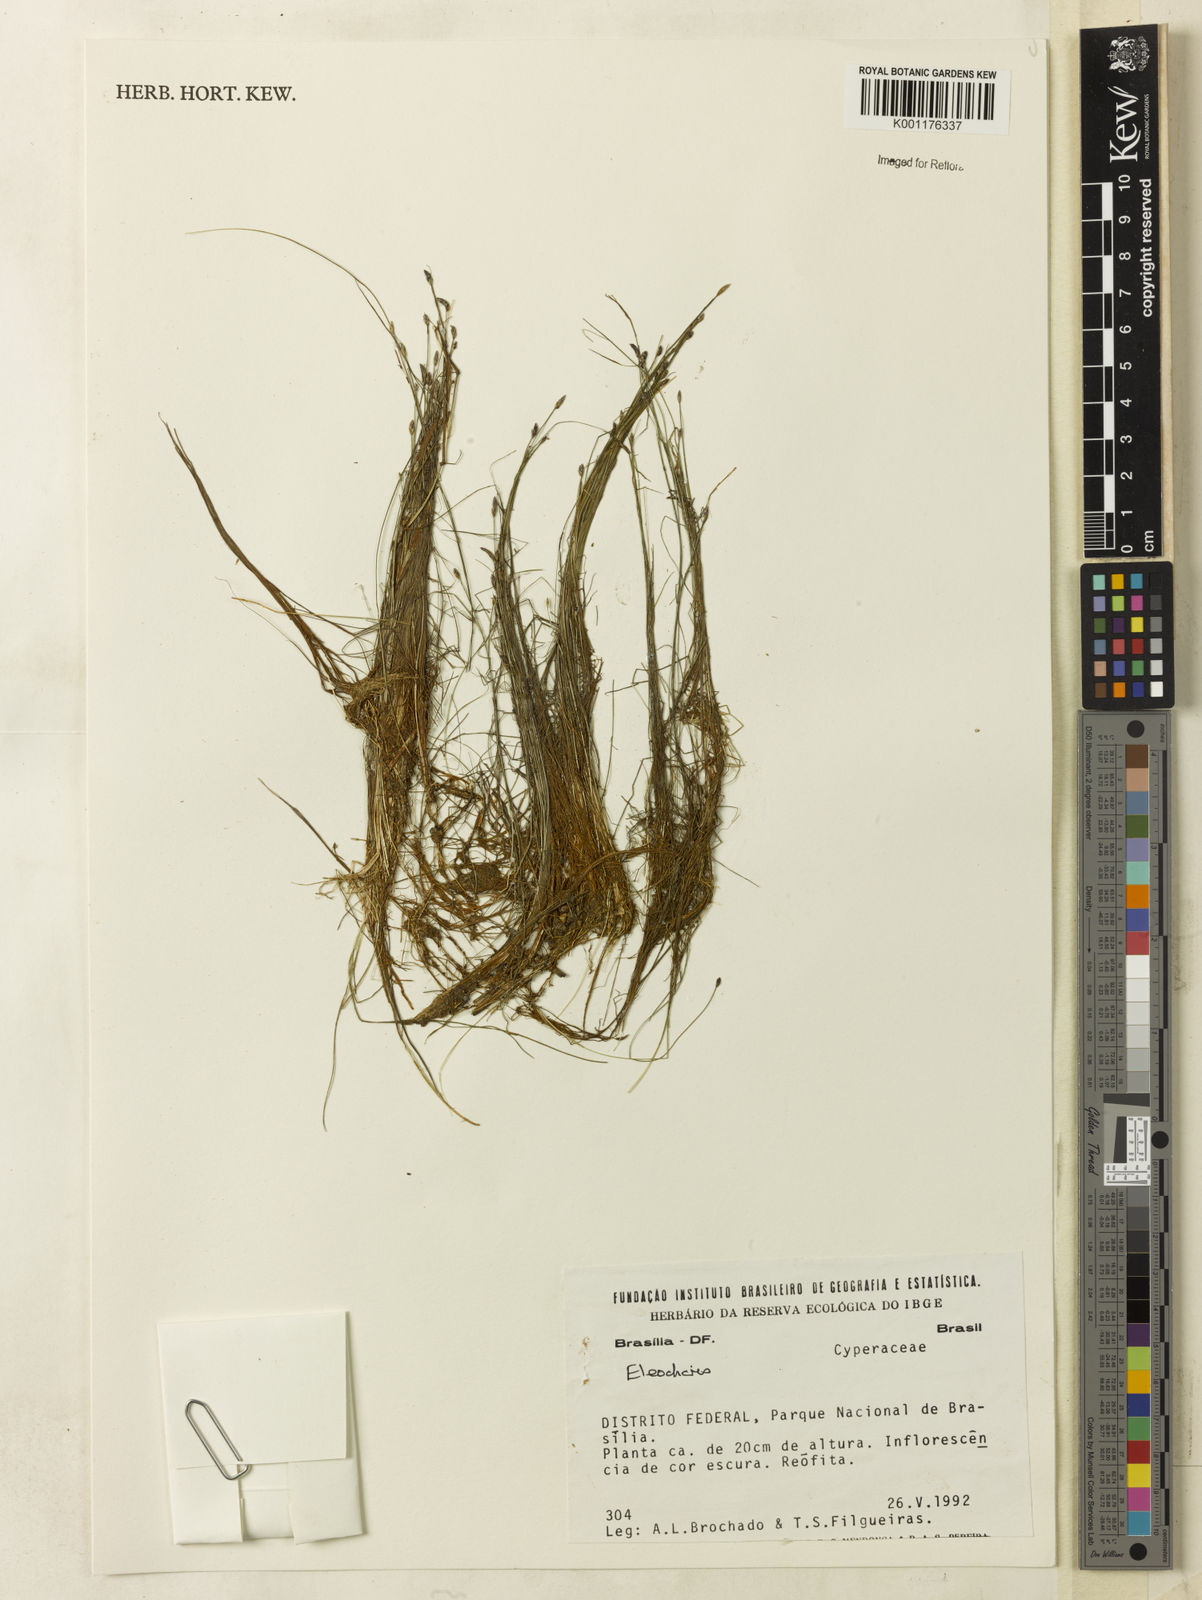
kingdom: Plantae
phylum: Tracheophyta
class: Liliopsida
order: Poales
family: Cyperaceae
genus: Eleocharis
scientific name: Eleocharis
